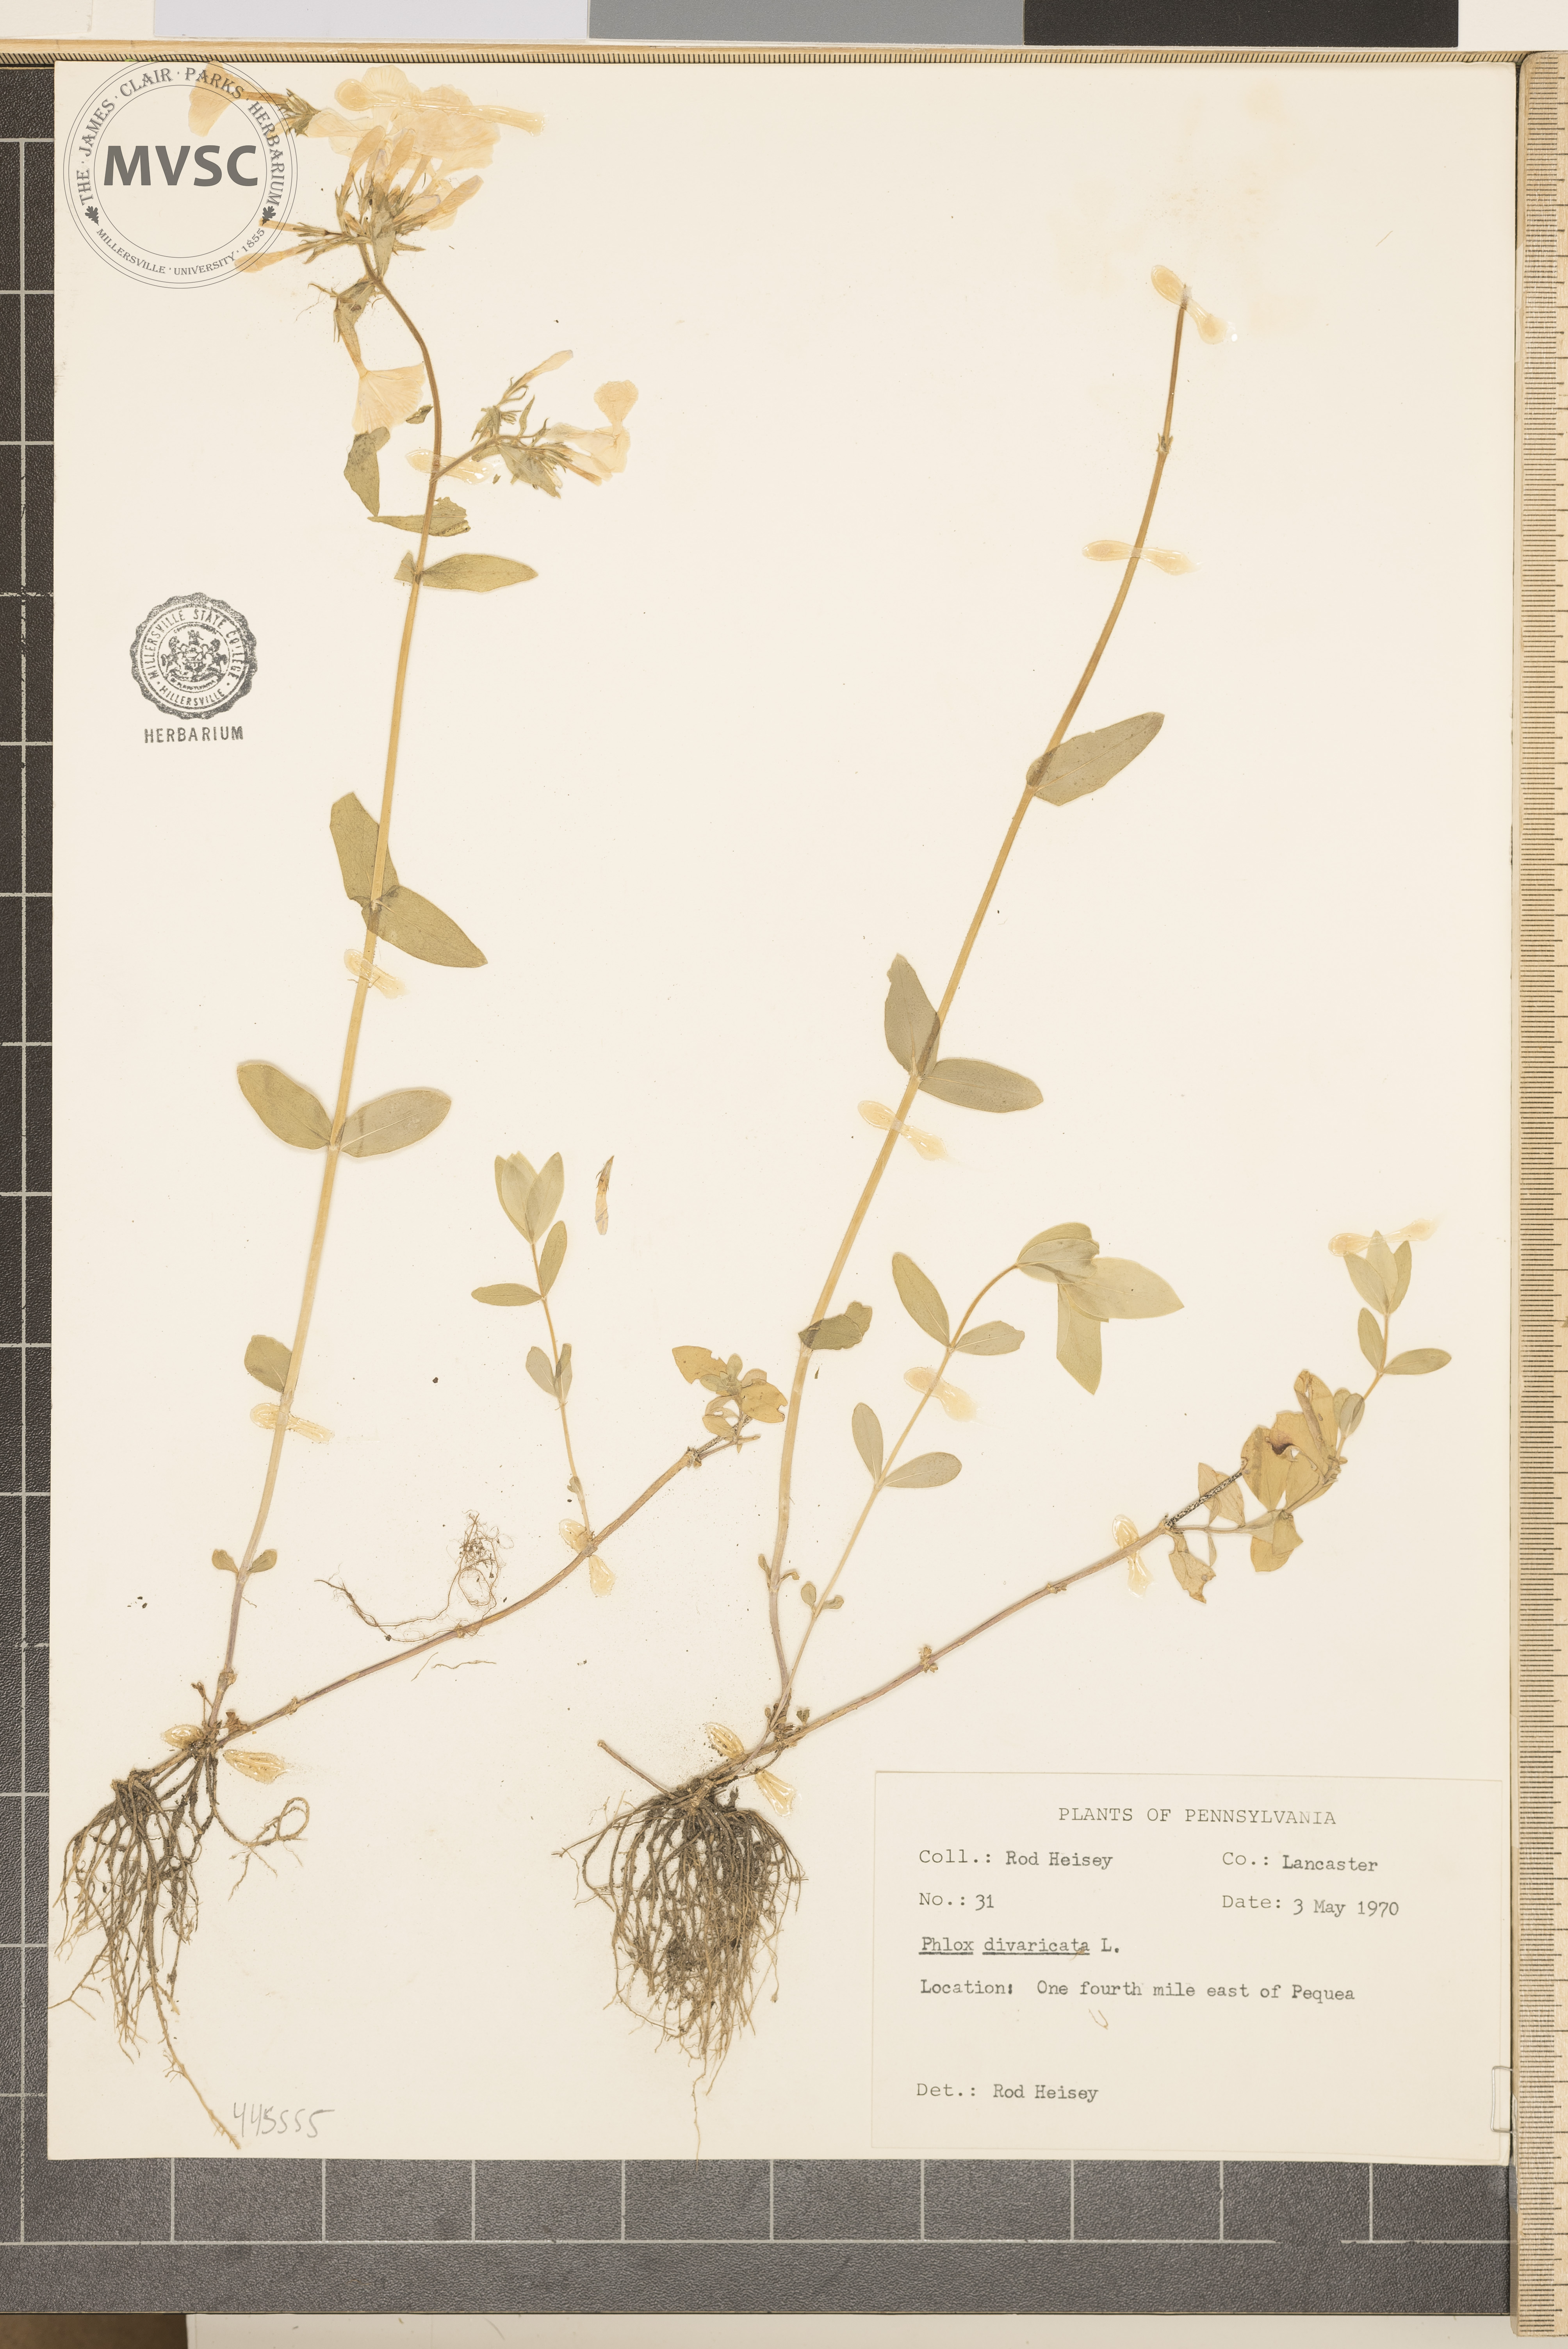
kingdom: Plantae
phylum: Tracheophyta
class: Magnoliopsida
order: Ericales
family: Polemoniaceae
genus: Phlox
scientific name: Phlox divaricata
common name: Blue phlox
